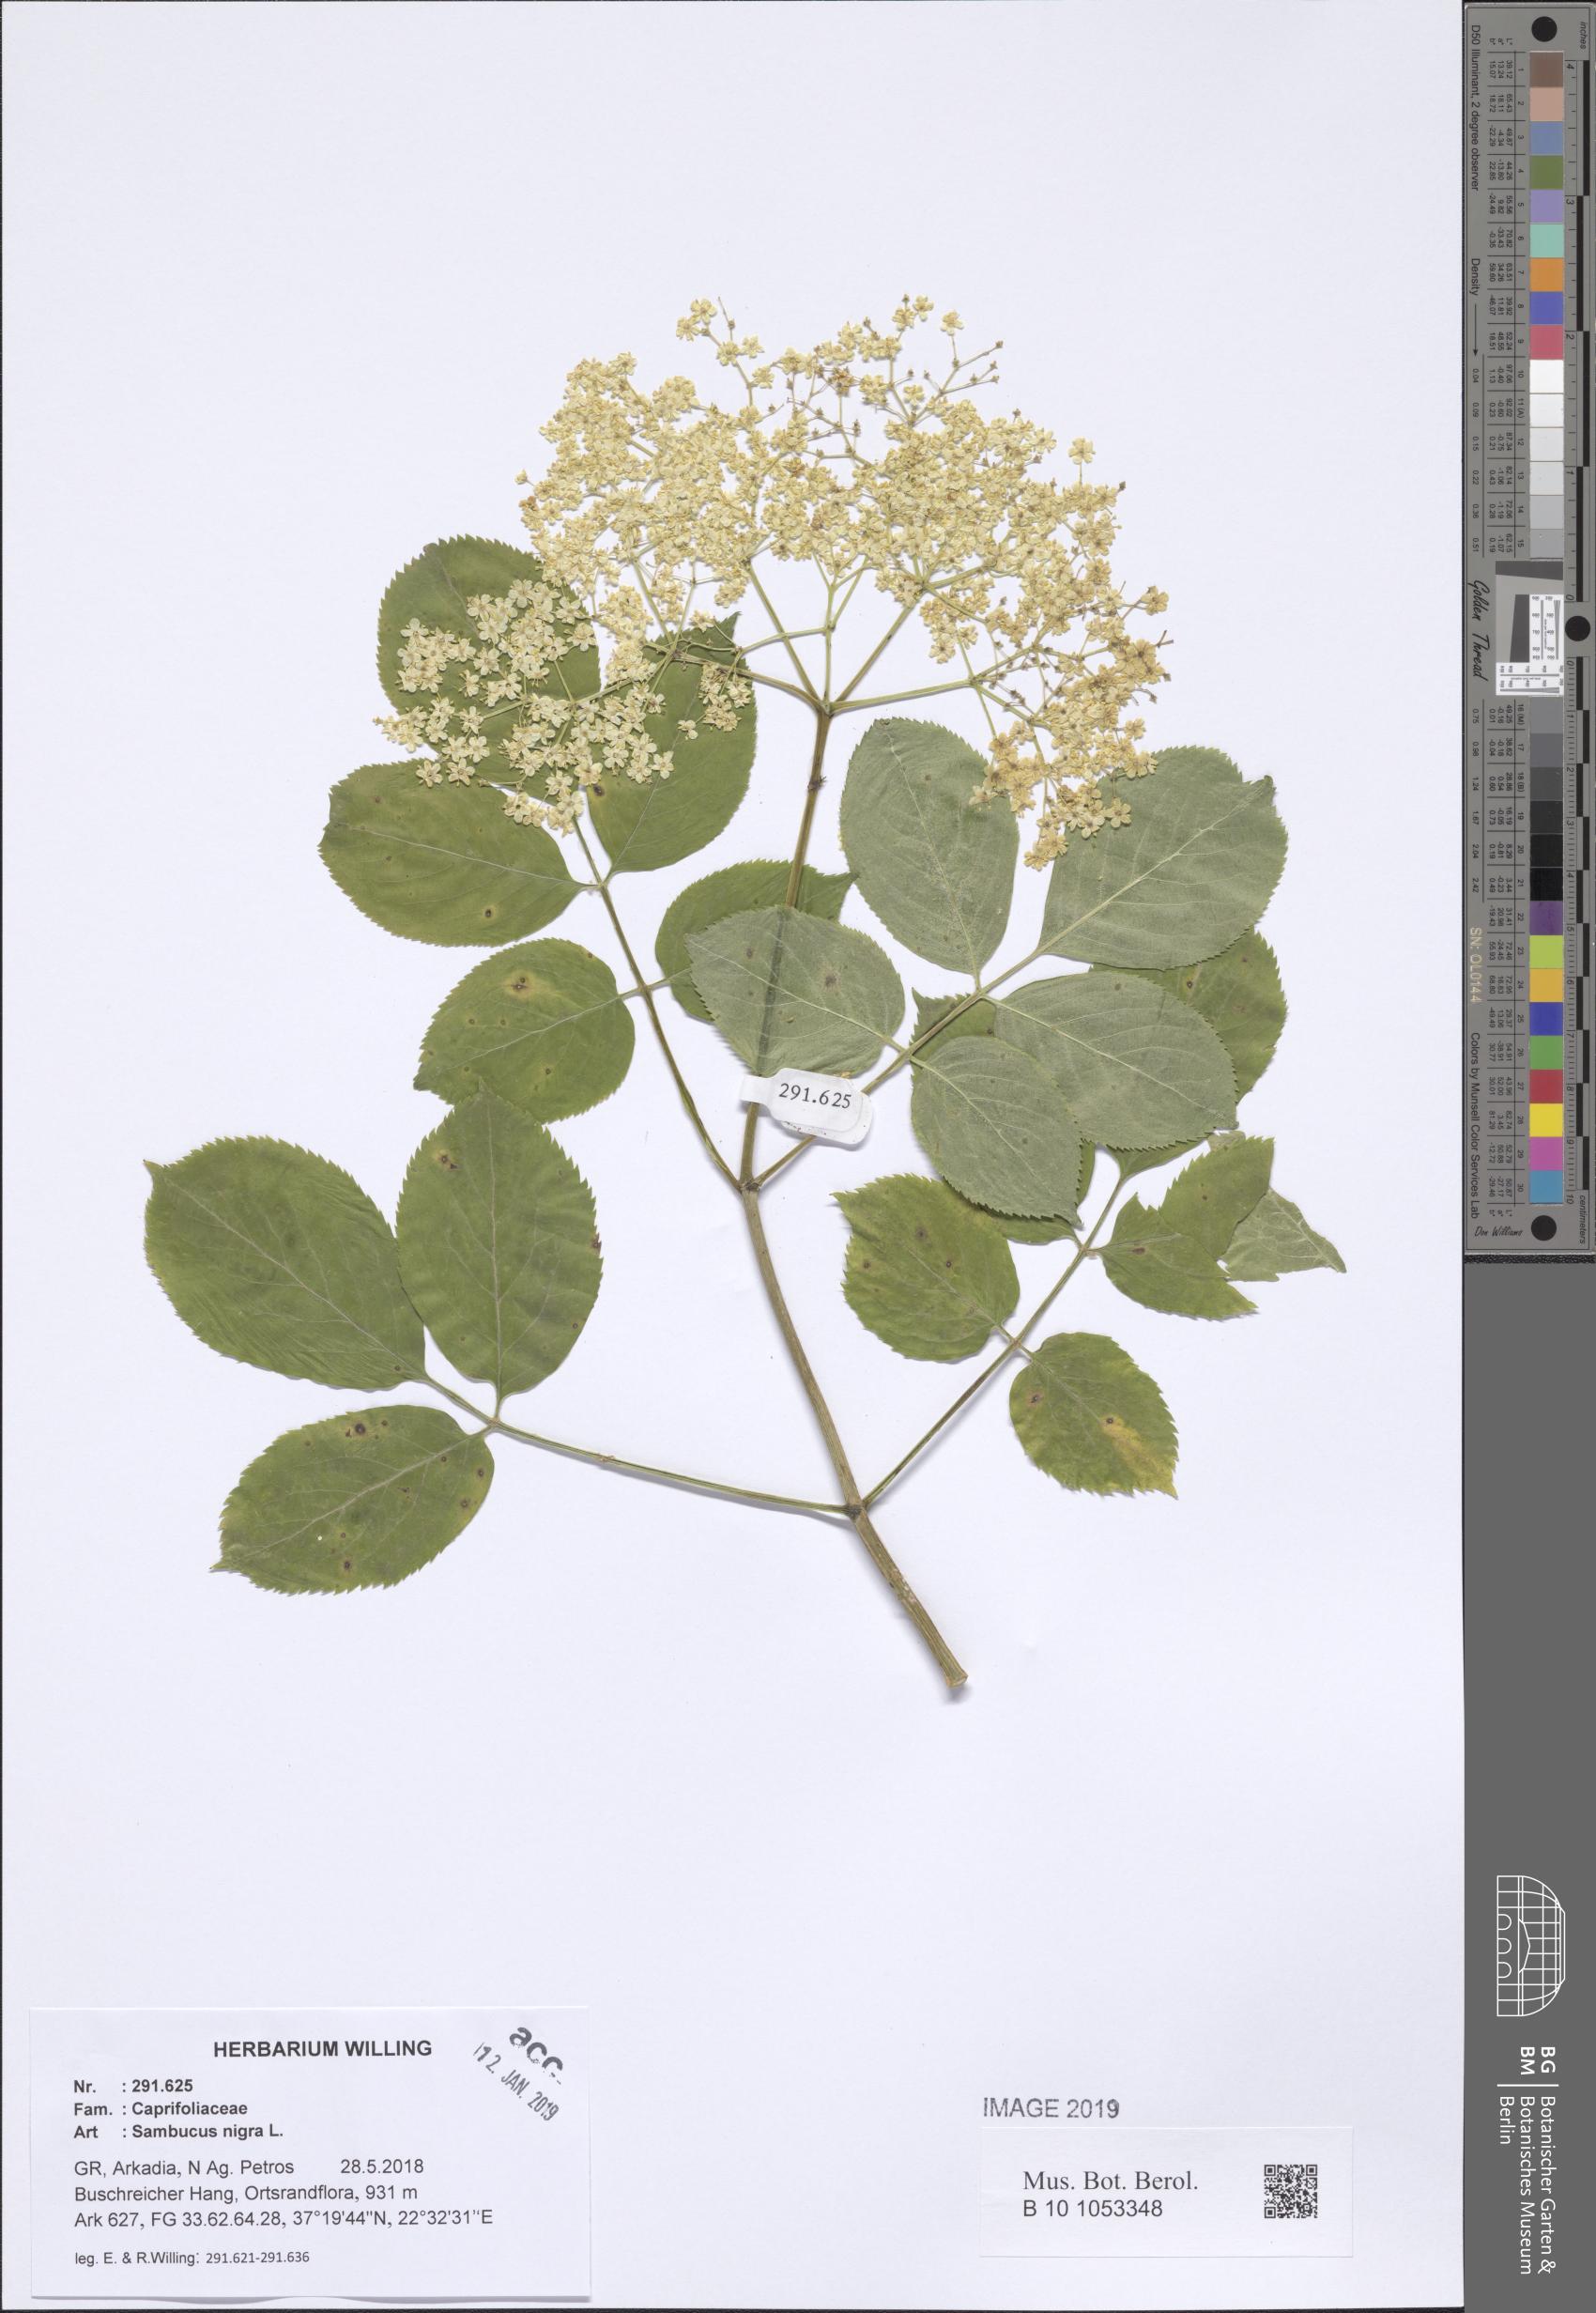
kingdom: Plantae
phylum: Tracheophyta
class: Magnoliopsida
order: Dipsacales
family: Viburnaceae
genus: Sambucus
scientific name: Sambucus nigra
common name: Elder
